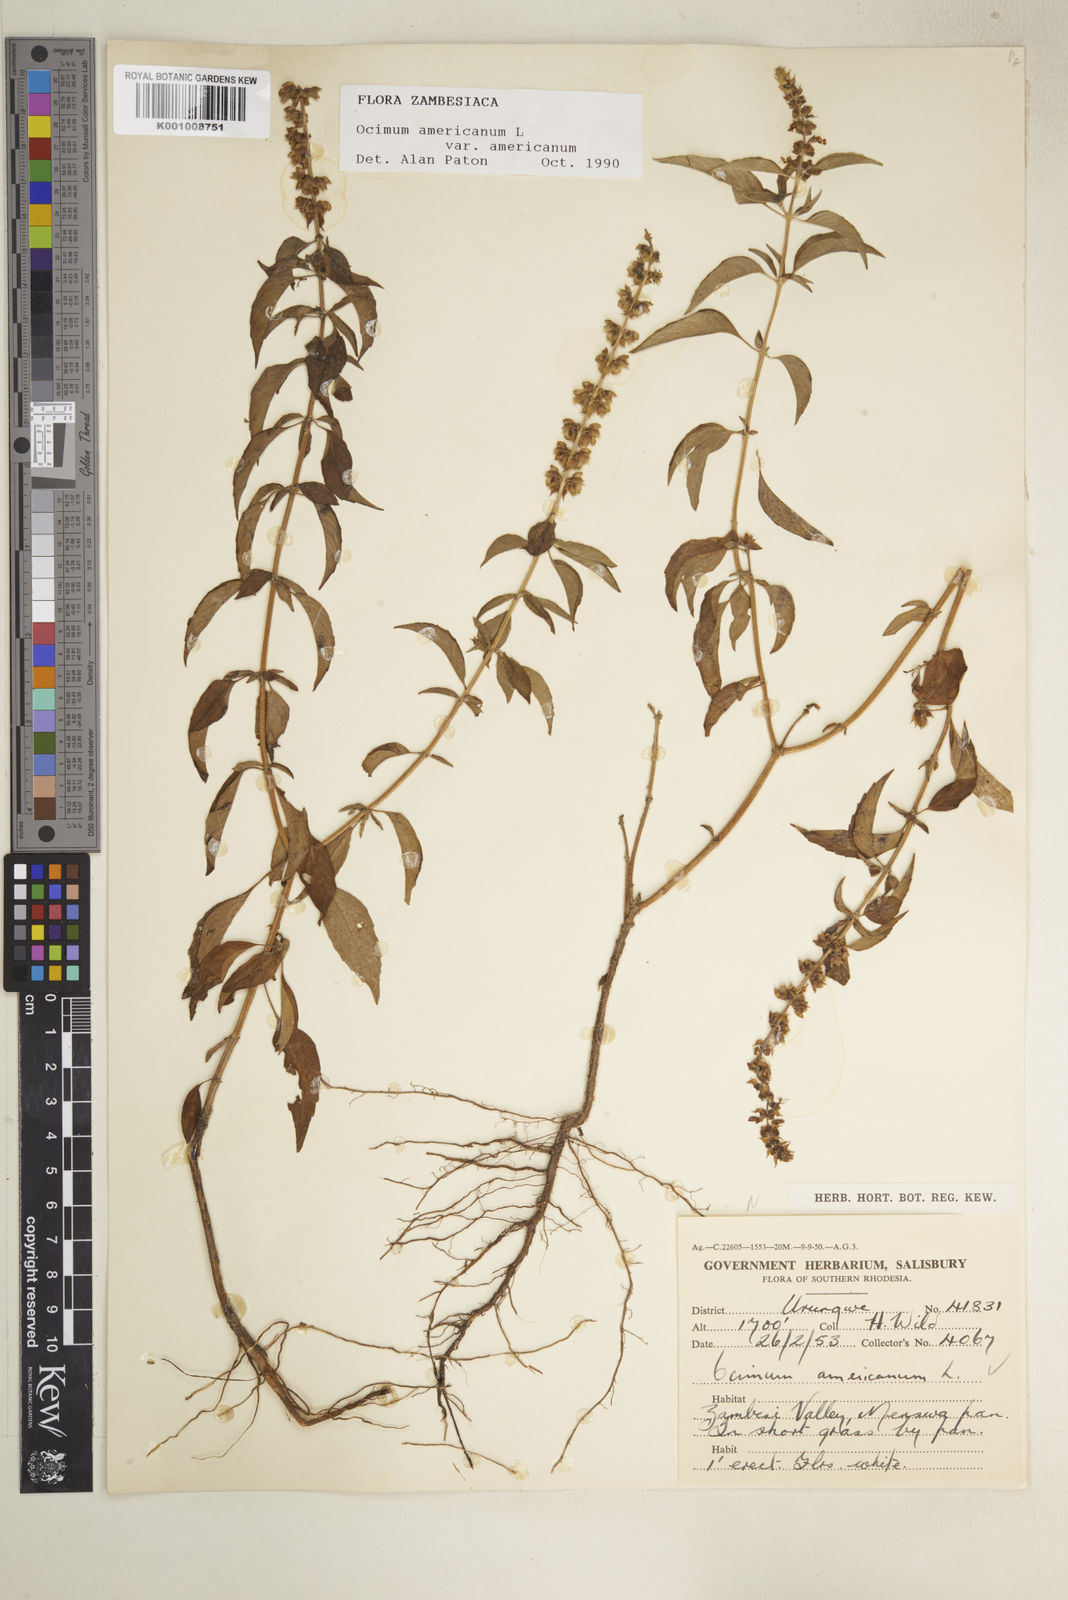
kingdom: Plantae
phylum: Tracheophyta
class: Magnoliopsida
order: Lamiales
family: Lamiaceae
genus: Ocimum
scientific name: Ocimum americanum
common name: American basil
